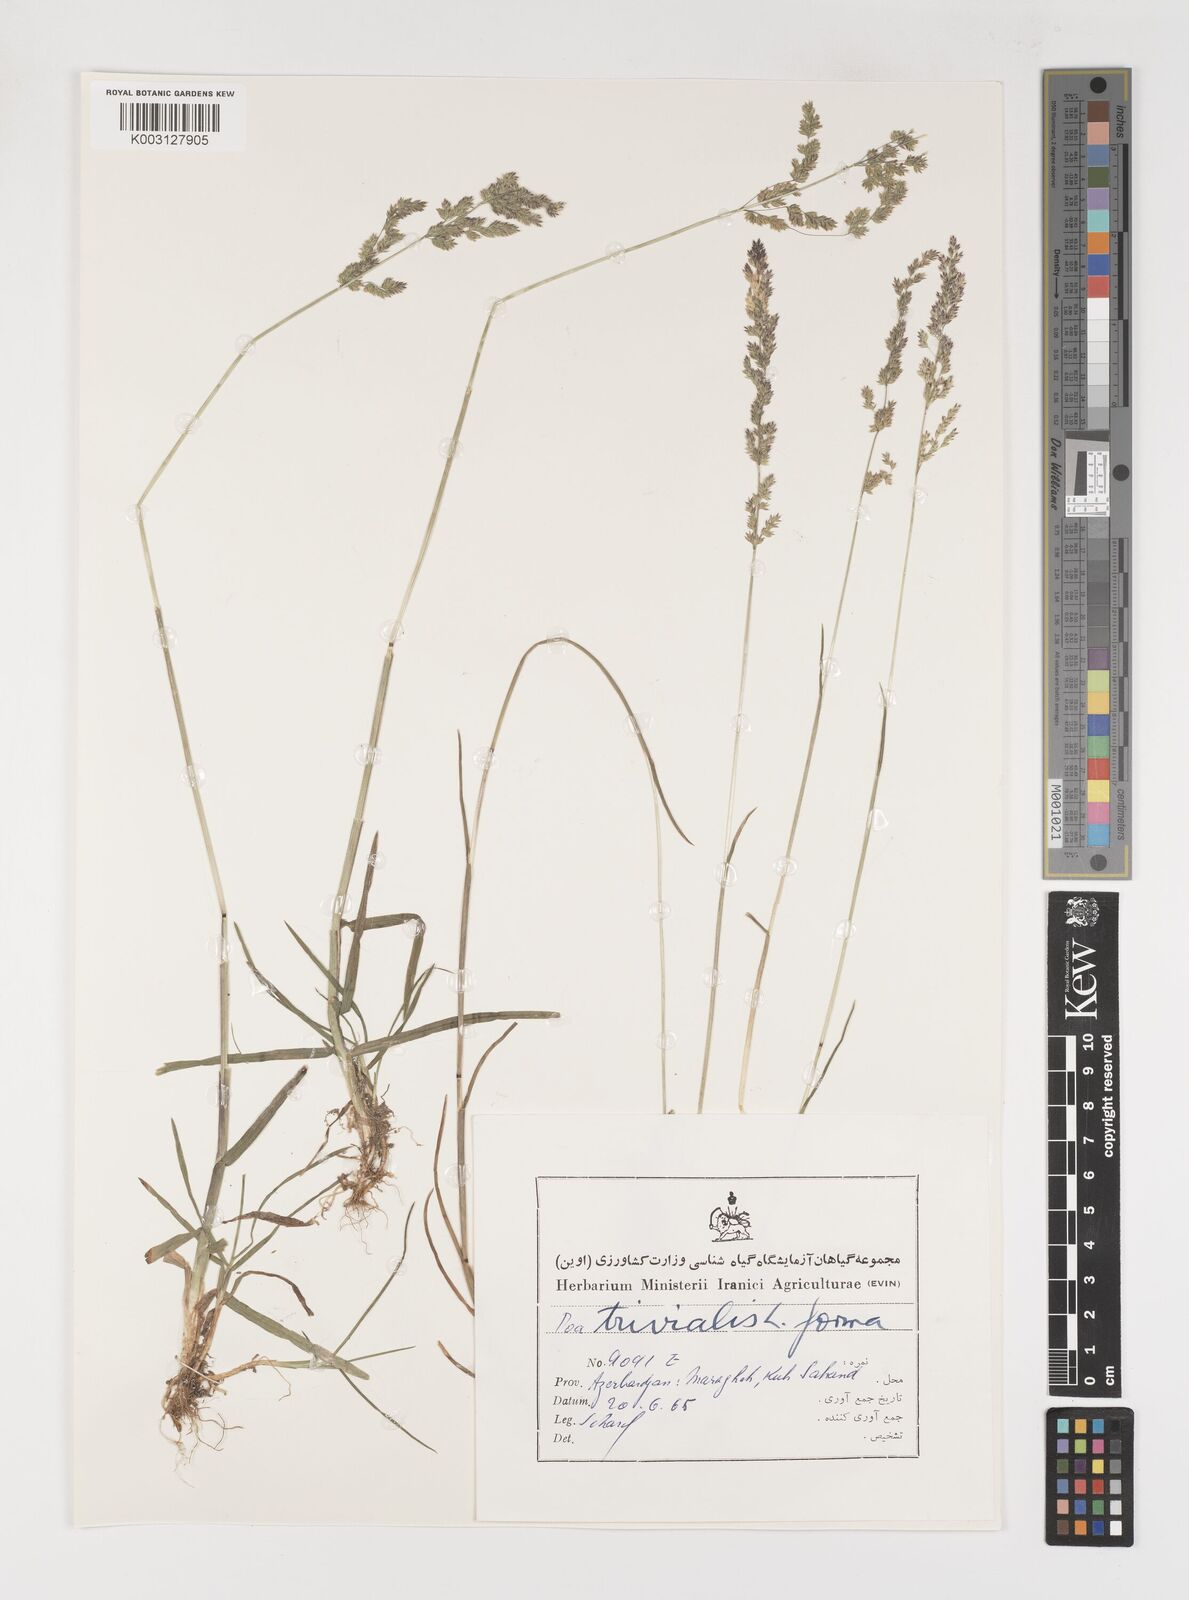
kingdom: Plantae
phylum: Tracheophyta
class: Liliopsida
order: Poales
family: Poaceae
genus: Poa
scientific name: Poa trivialis
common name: Rough bluegrass
